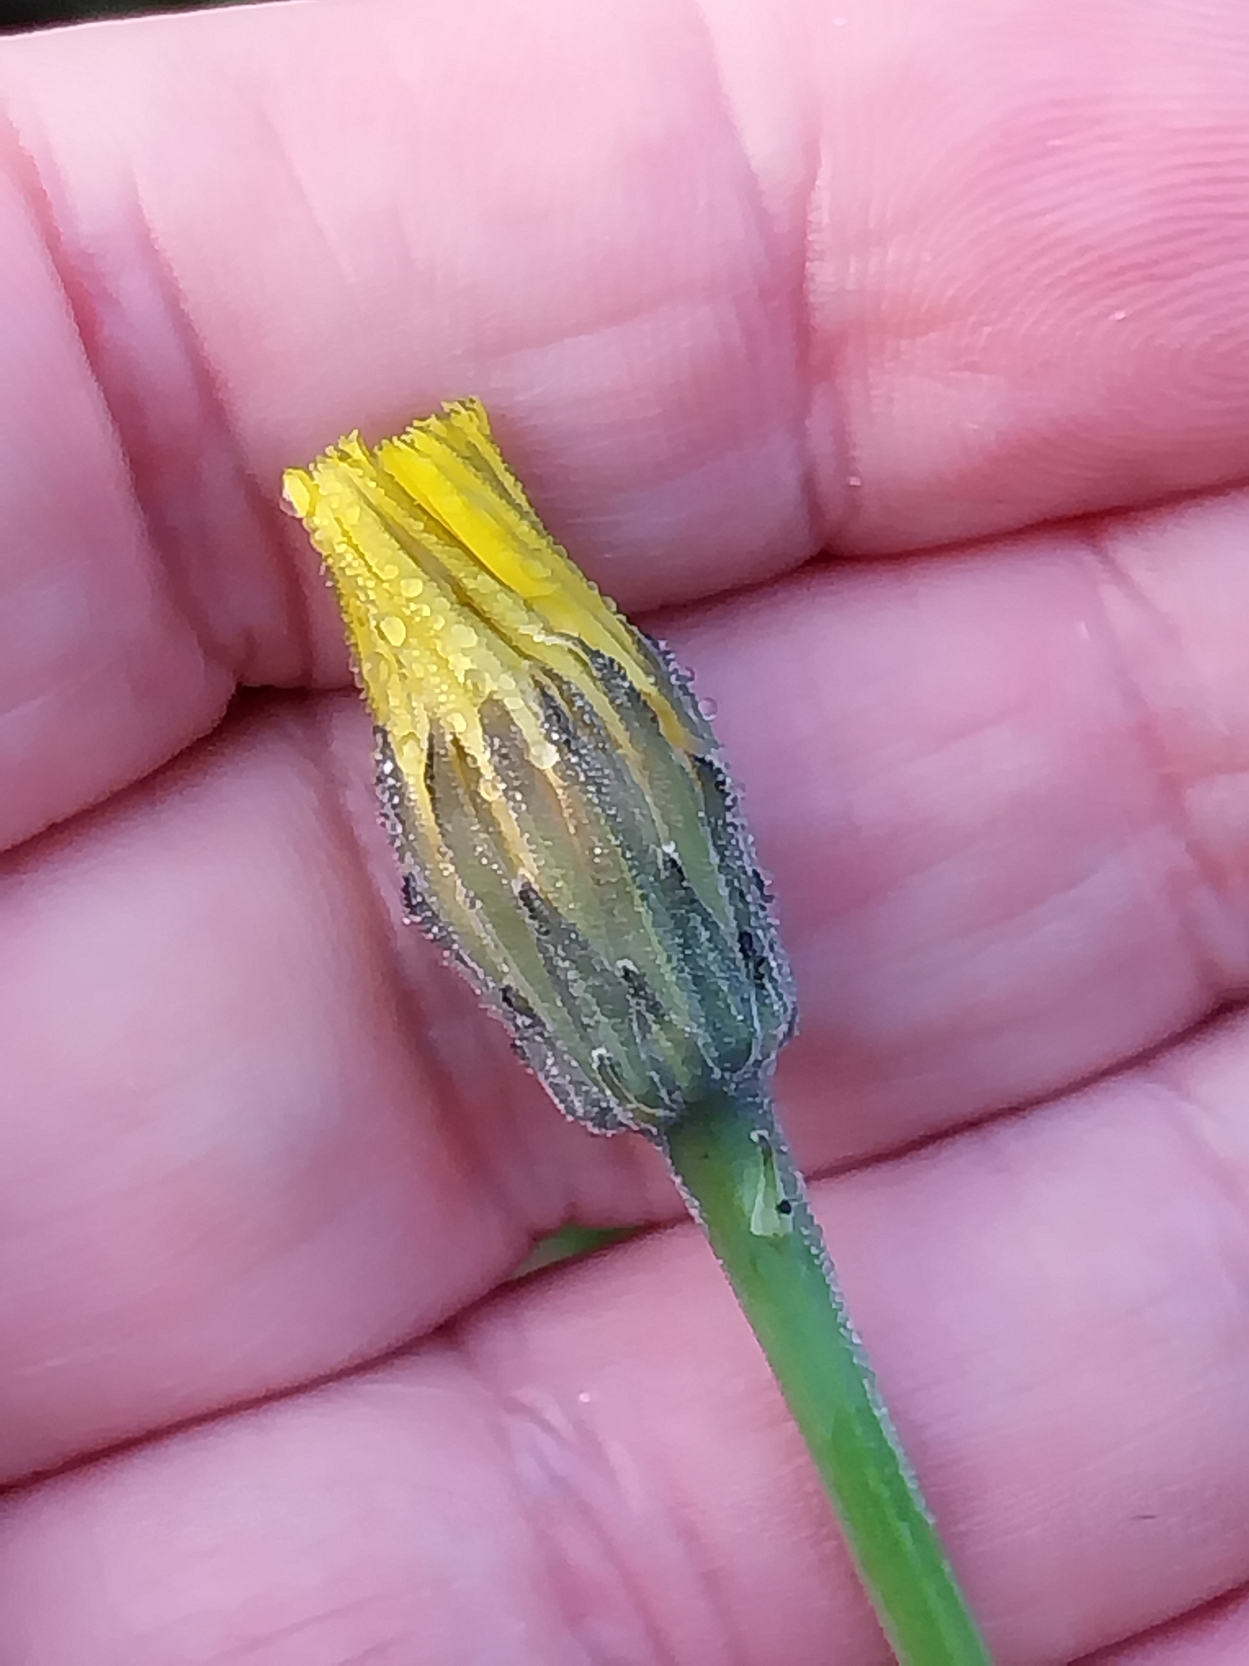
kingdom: Plantae
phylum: Tracheophyta
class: Magnoliopsida
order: Asterales
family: Asteraceae
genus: Hypochaeris
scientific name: Hypochaeris radicata
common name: Almindelig kongepen
